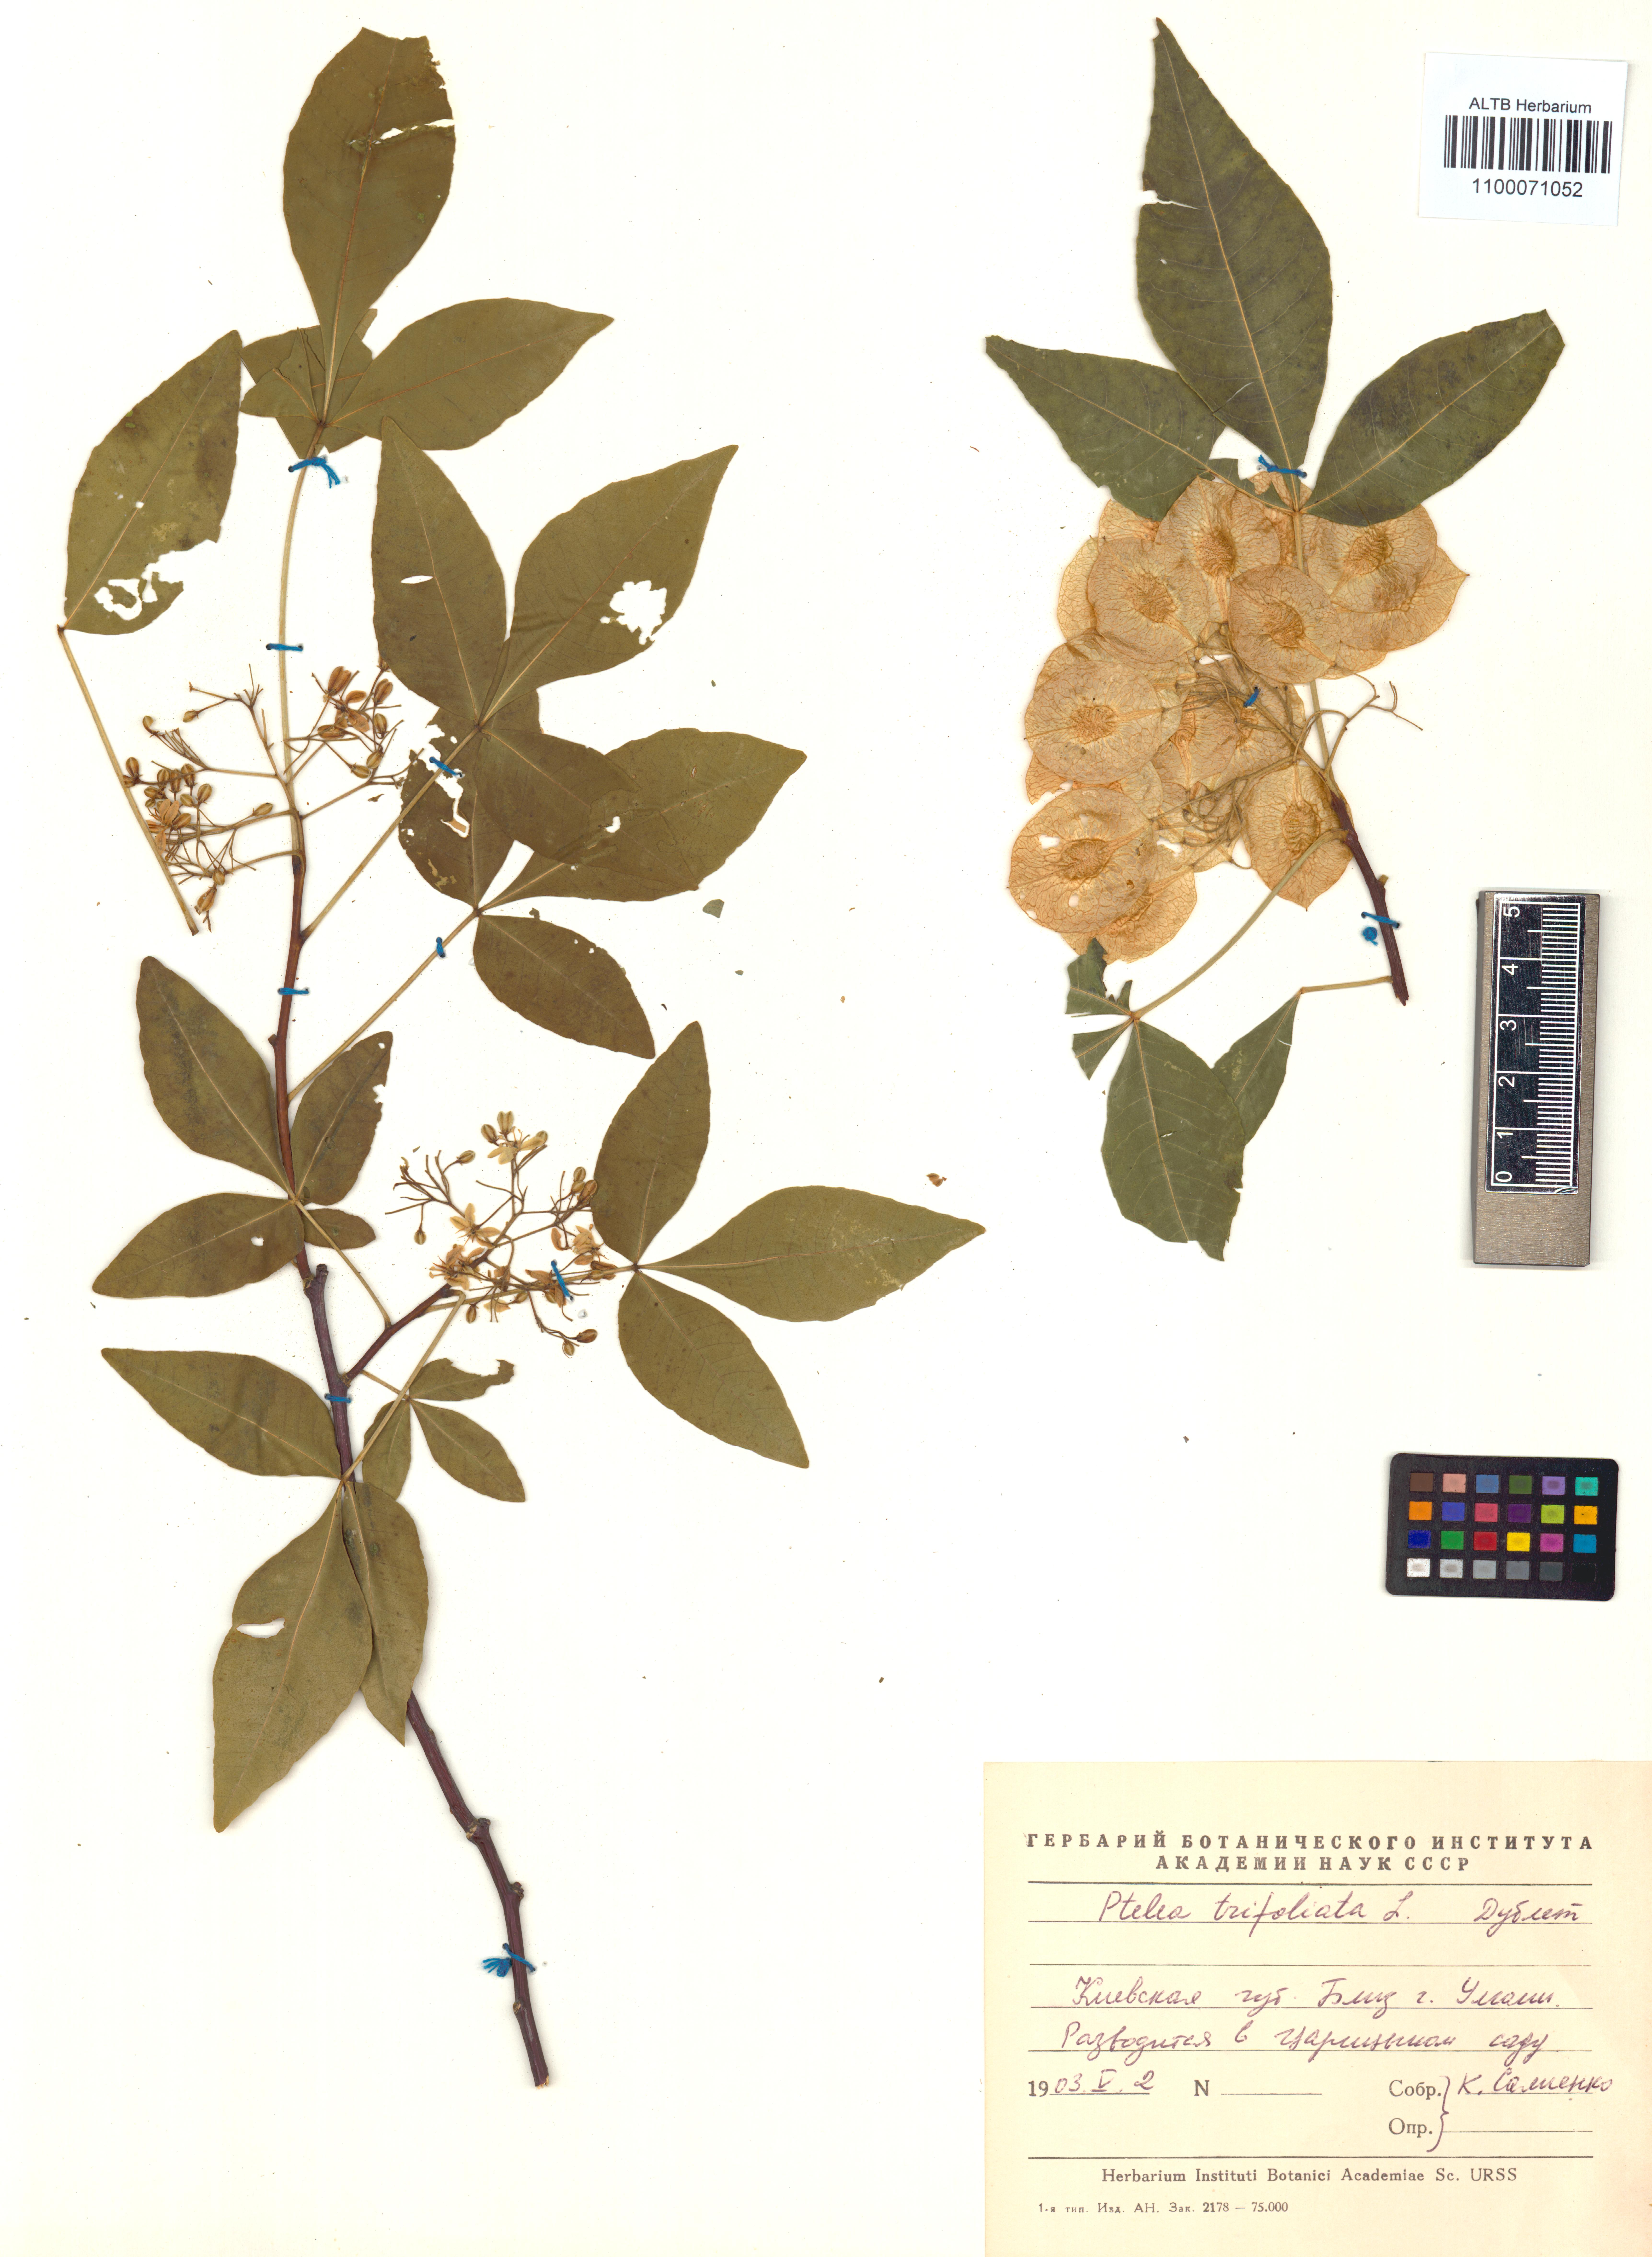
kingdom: Plantae
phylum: Tracheophyta
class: Magnoliopsida
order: Sapindales
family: Rutaceae
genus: Ptelea
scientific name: Ptelea trifoliata
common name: Common hop-tree
